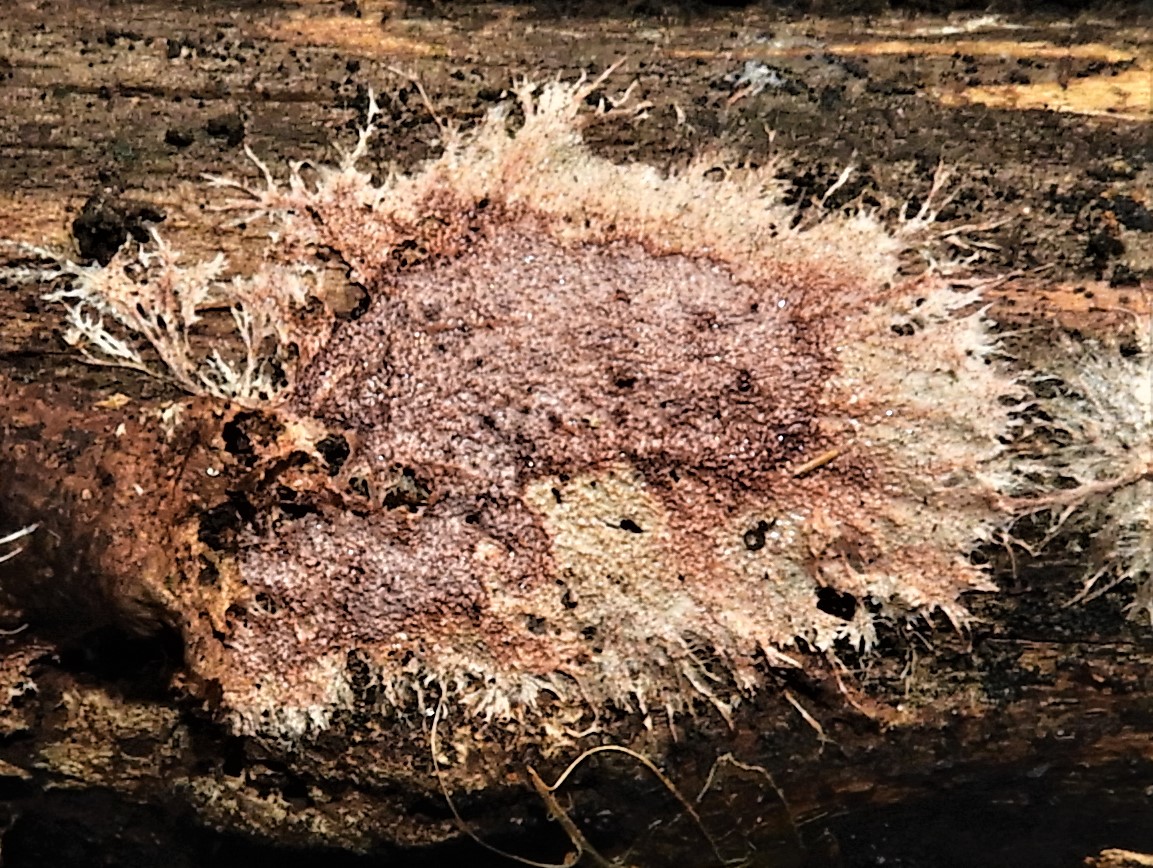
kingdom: Fungi
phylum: Basidiomycota
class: Agaricomycetes
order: Polyporales
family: Steccherinaceae
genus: Steccherinum
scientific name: Steccherinum fimbriatum
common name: trådet skønpig
